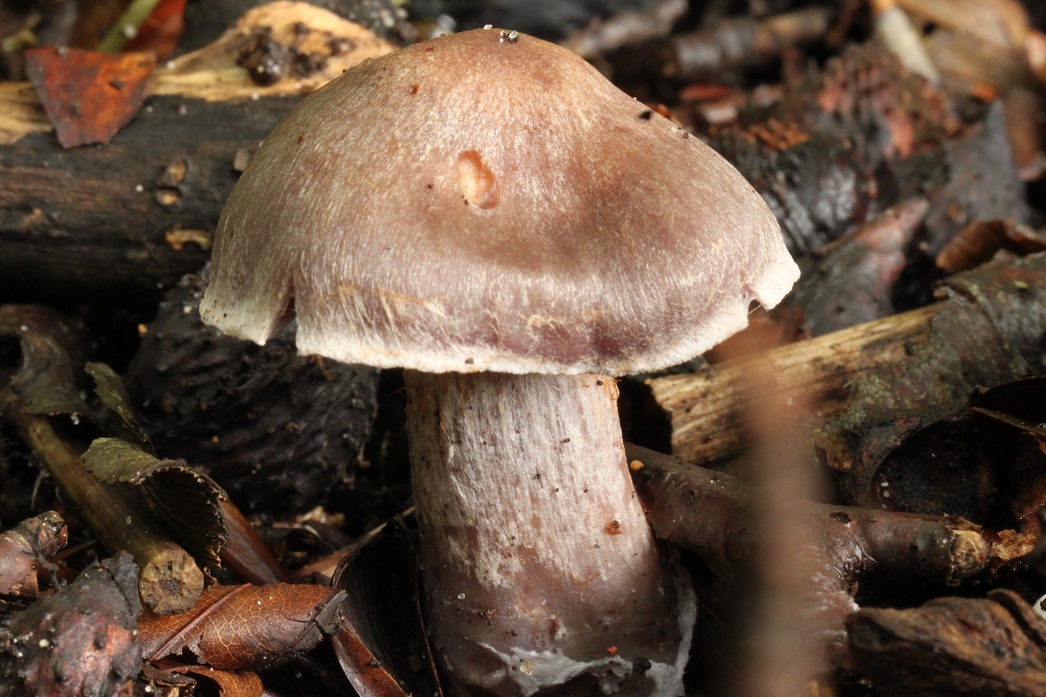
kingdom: Fungi
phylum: Basidiomycota
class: Agaricomycetes
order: Agaricales
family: Cortinariaceae
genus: Cortinarius
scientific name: Cortinarius serratissimus
